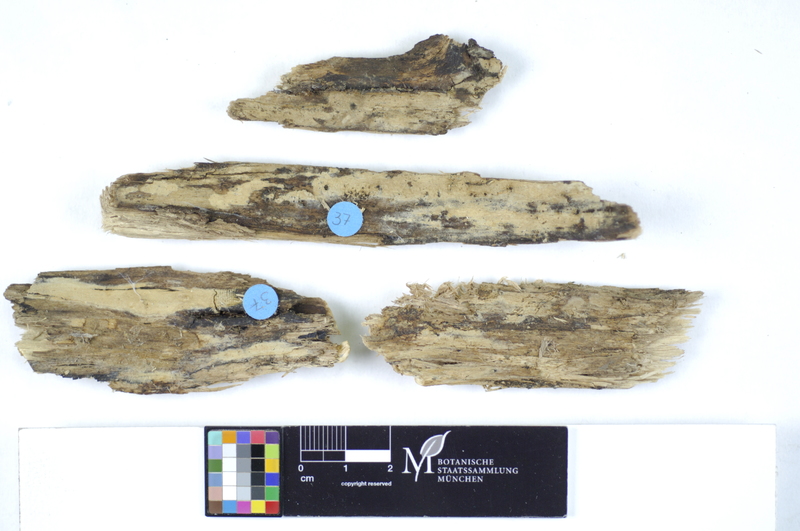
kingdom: Fungi
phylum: Basidiomycota
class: Agaricomycetes
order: Polyporales
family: Hyphodermataceae
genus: Hyphoderma
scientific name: Hyphoderma medioburiense
